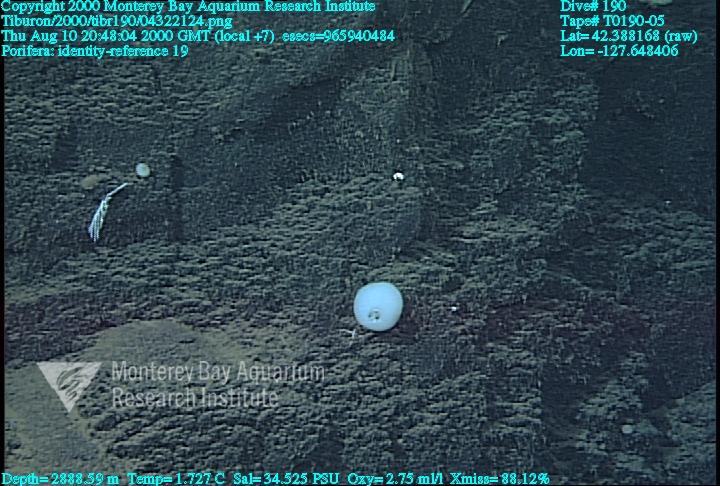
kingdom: Animalia
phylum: Porifera
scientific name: Porifera
